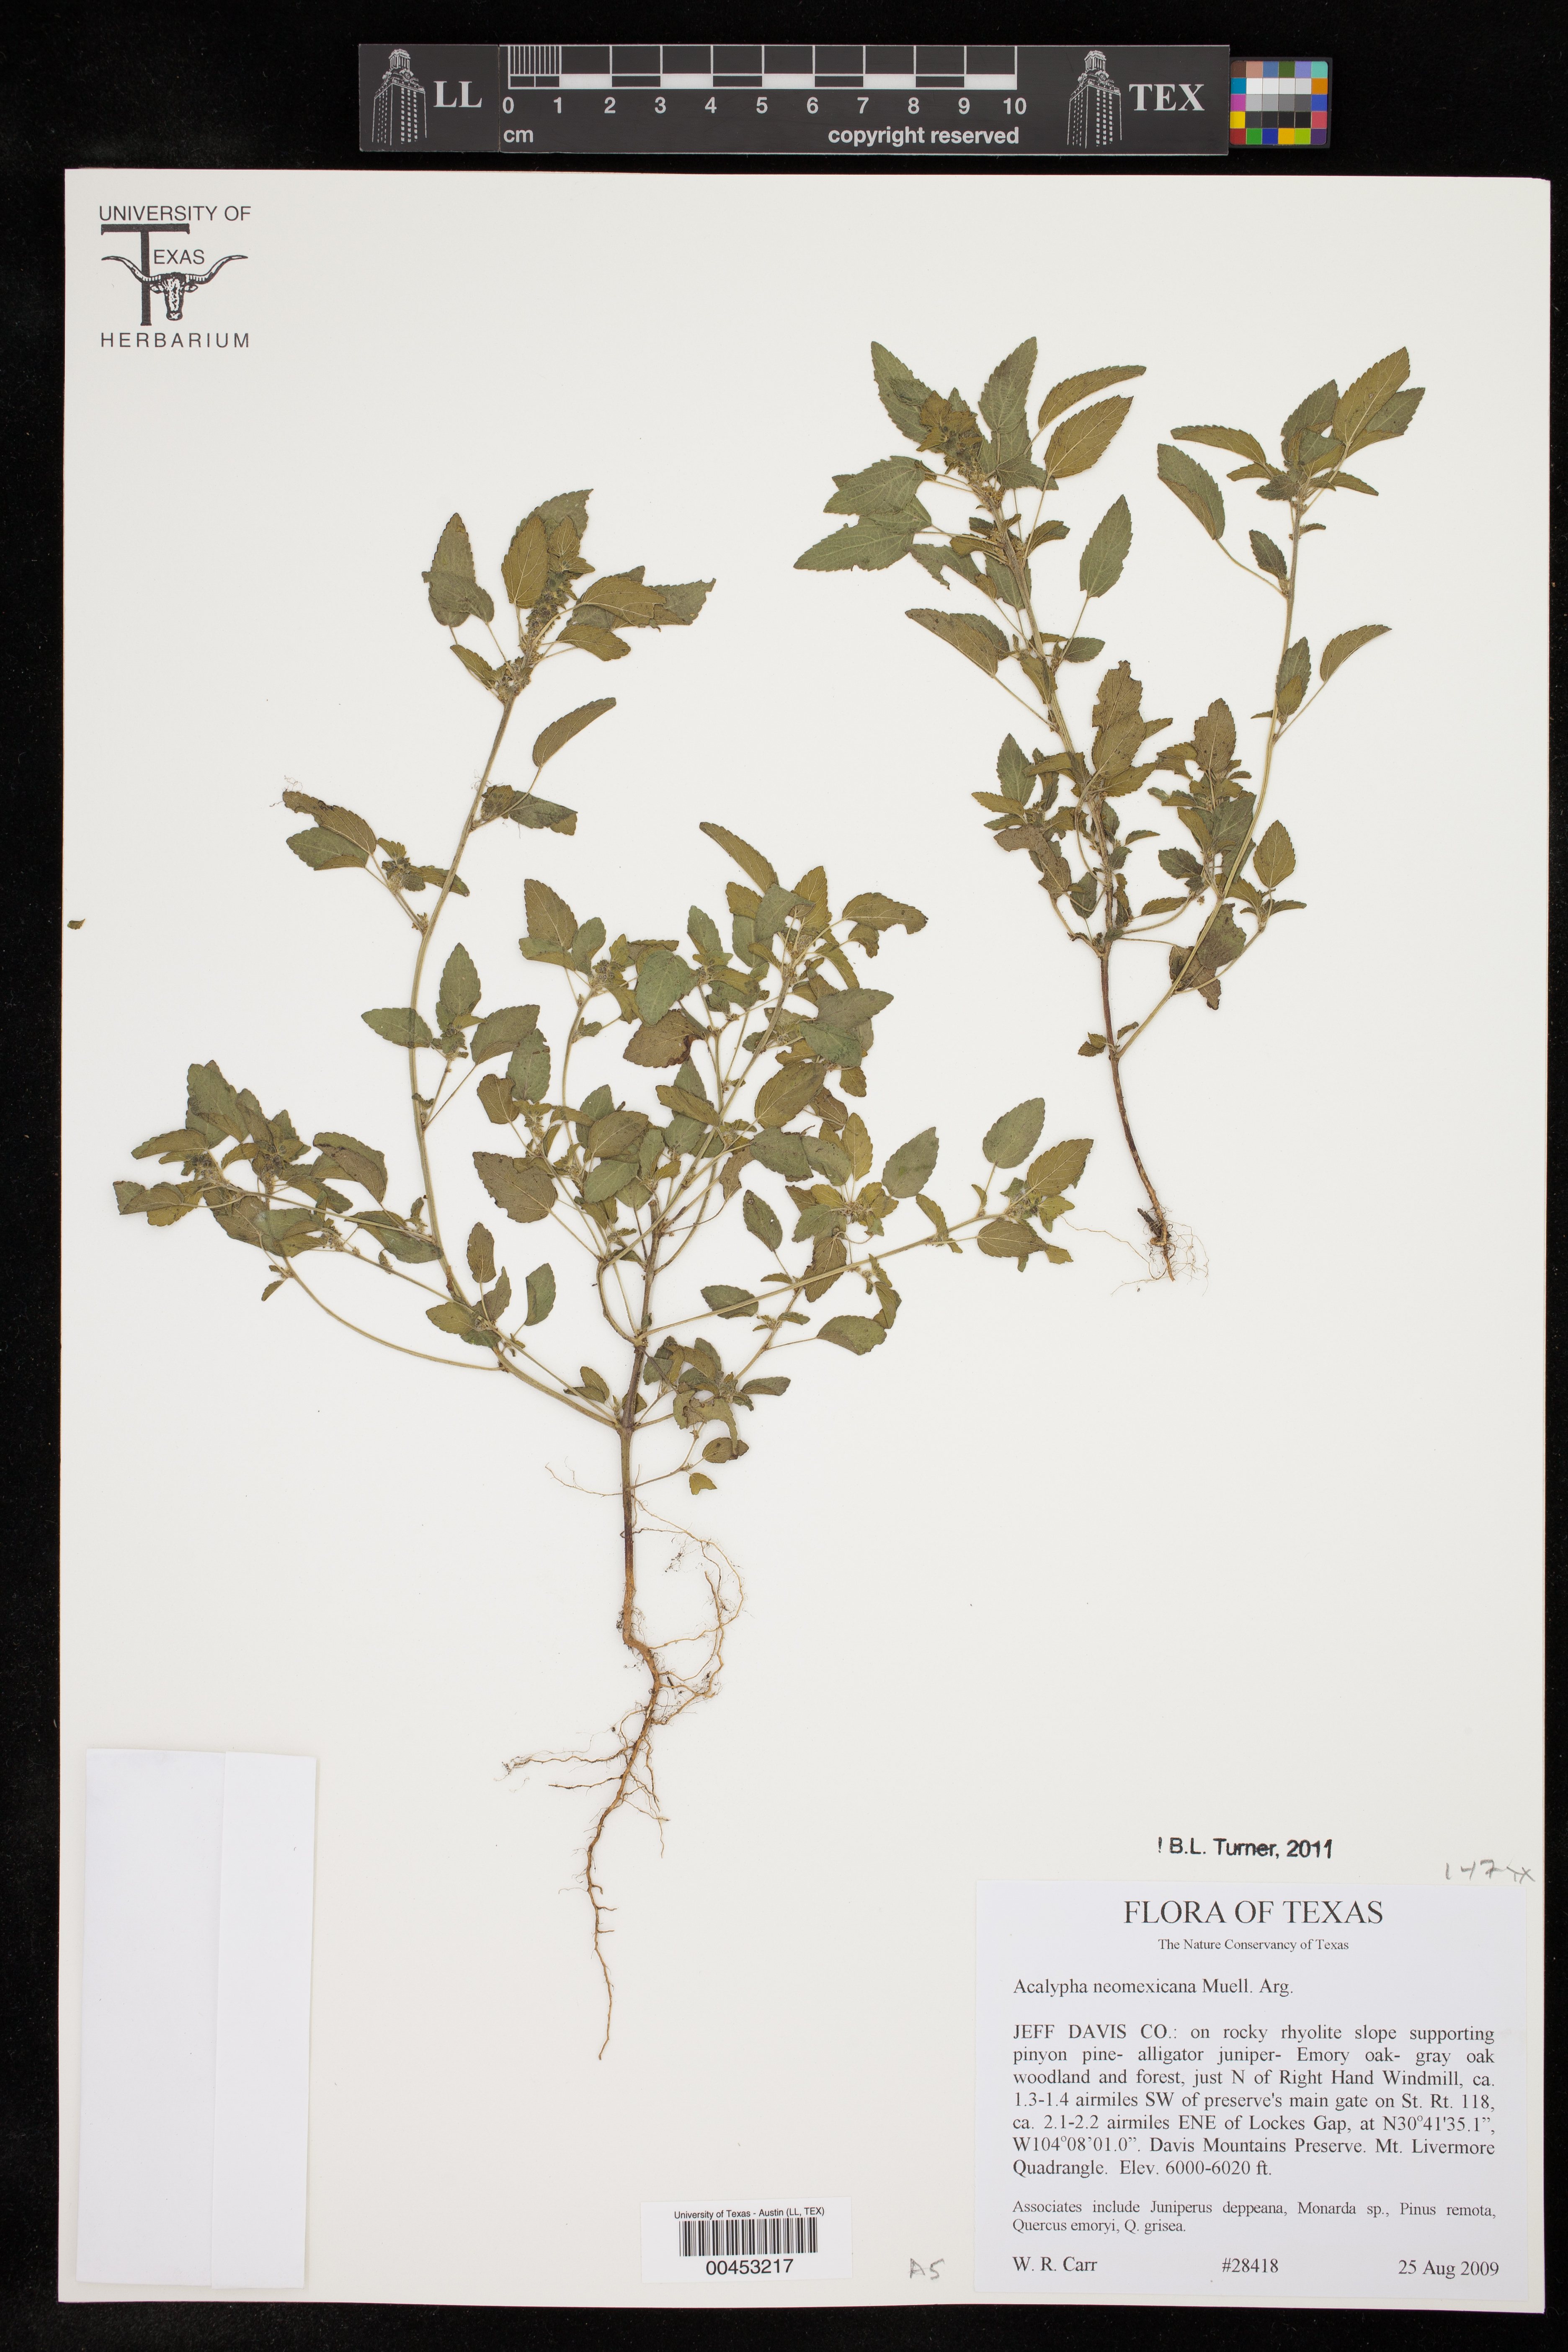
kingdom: Plantae
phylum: Tracheophyta
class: Magnoliopsida
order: Malpighiales
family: Euphorbiaceae
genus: Acalypha
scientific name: Acalypha neomexicana
